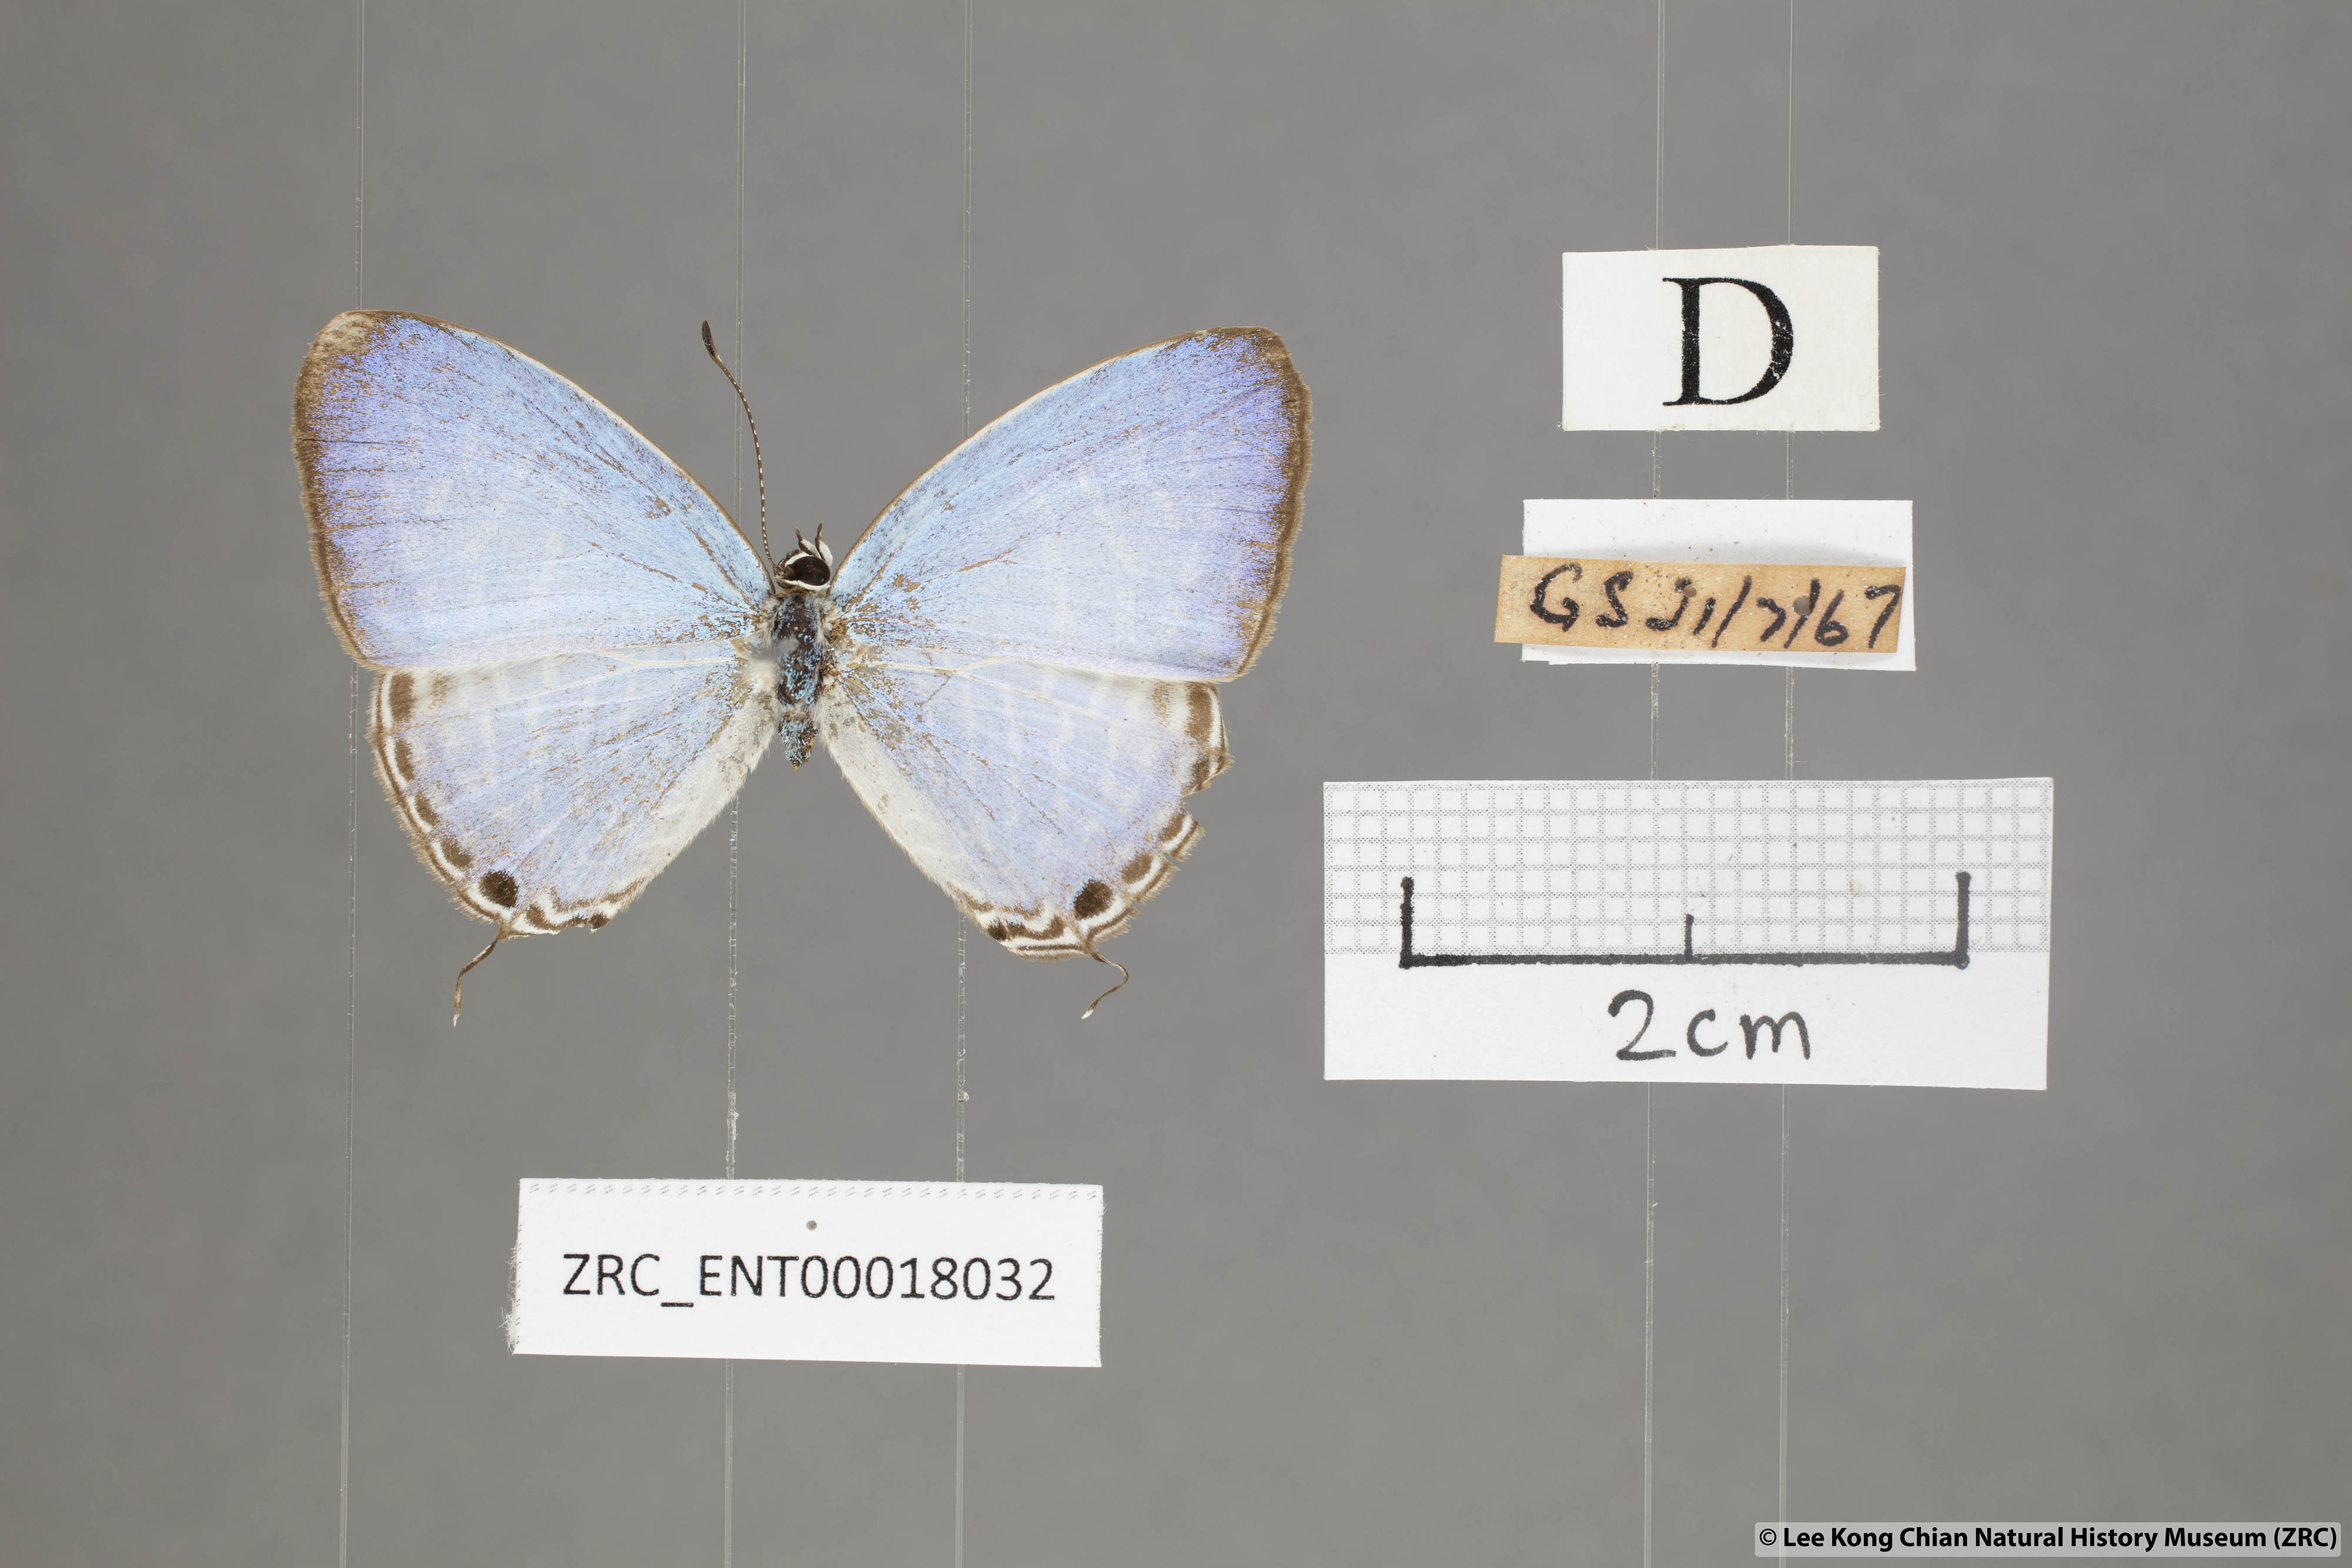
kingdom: Animalia
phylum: Arthropoda
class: Insecta
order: Lepidoptera
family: Lycaenidae
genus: Jamides
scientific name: Jamides alecto
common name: Metallic cerulean
